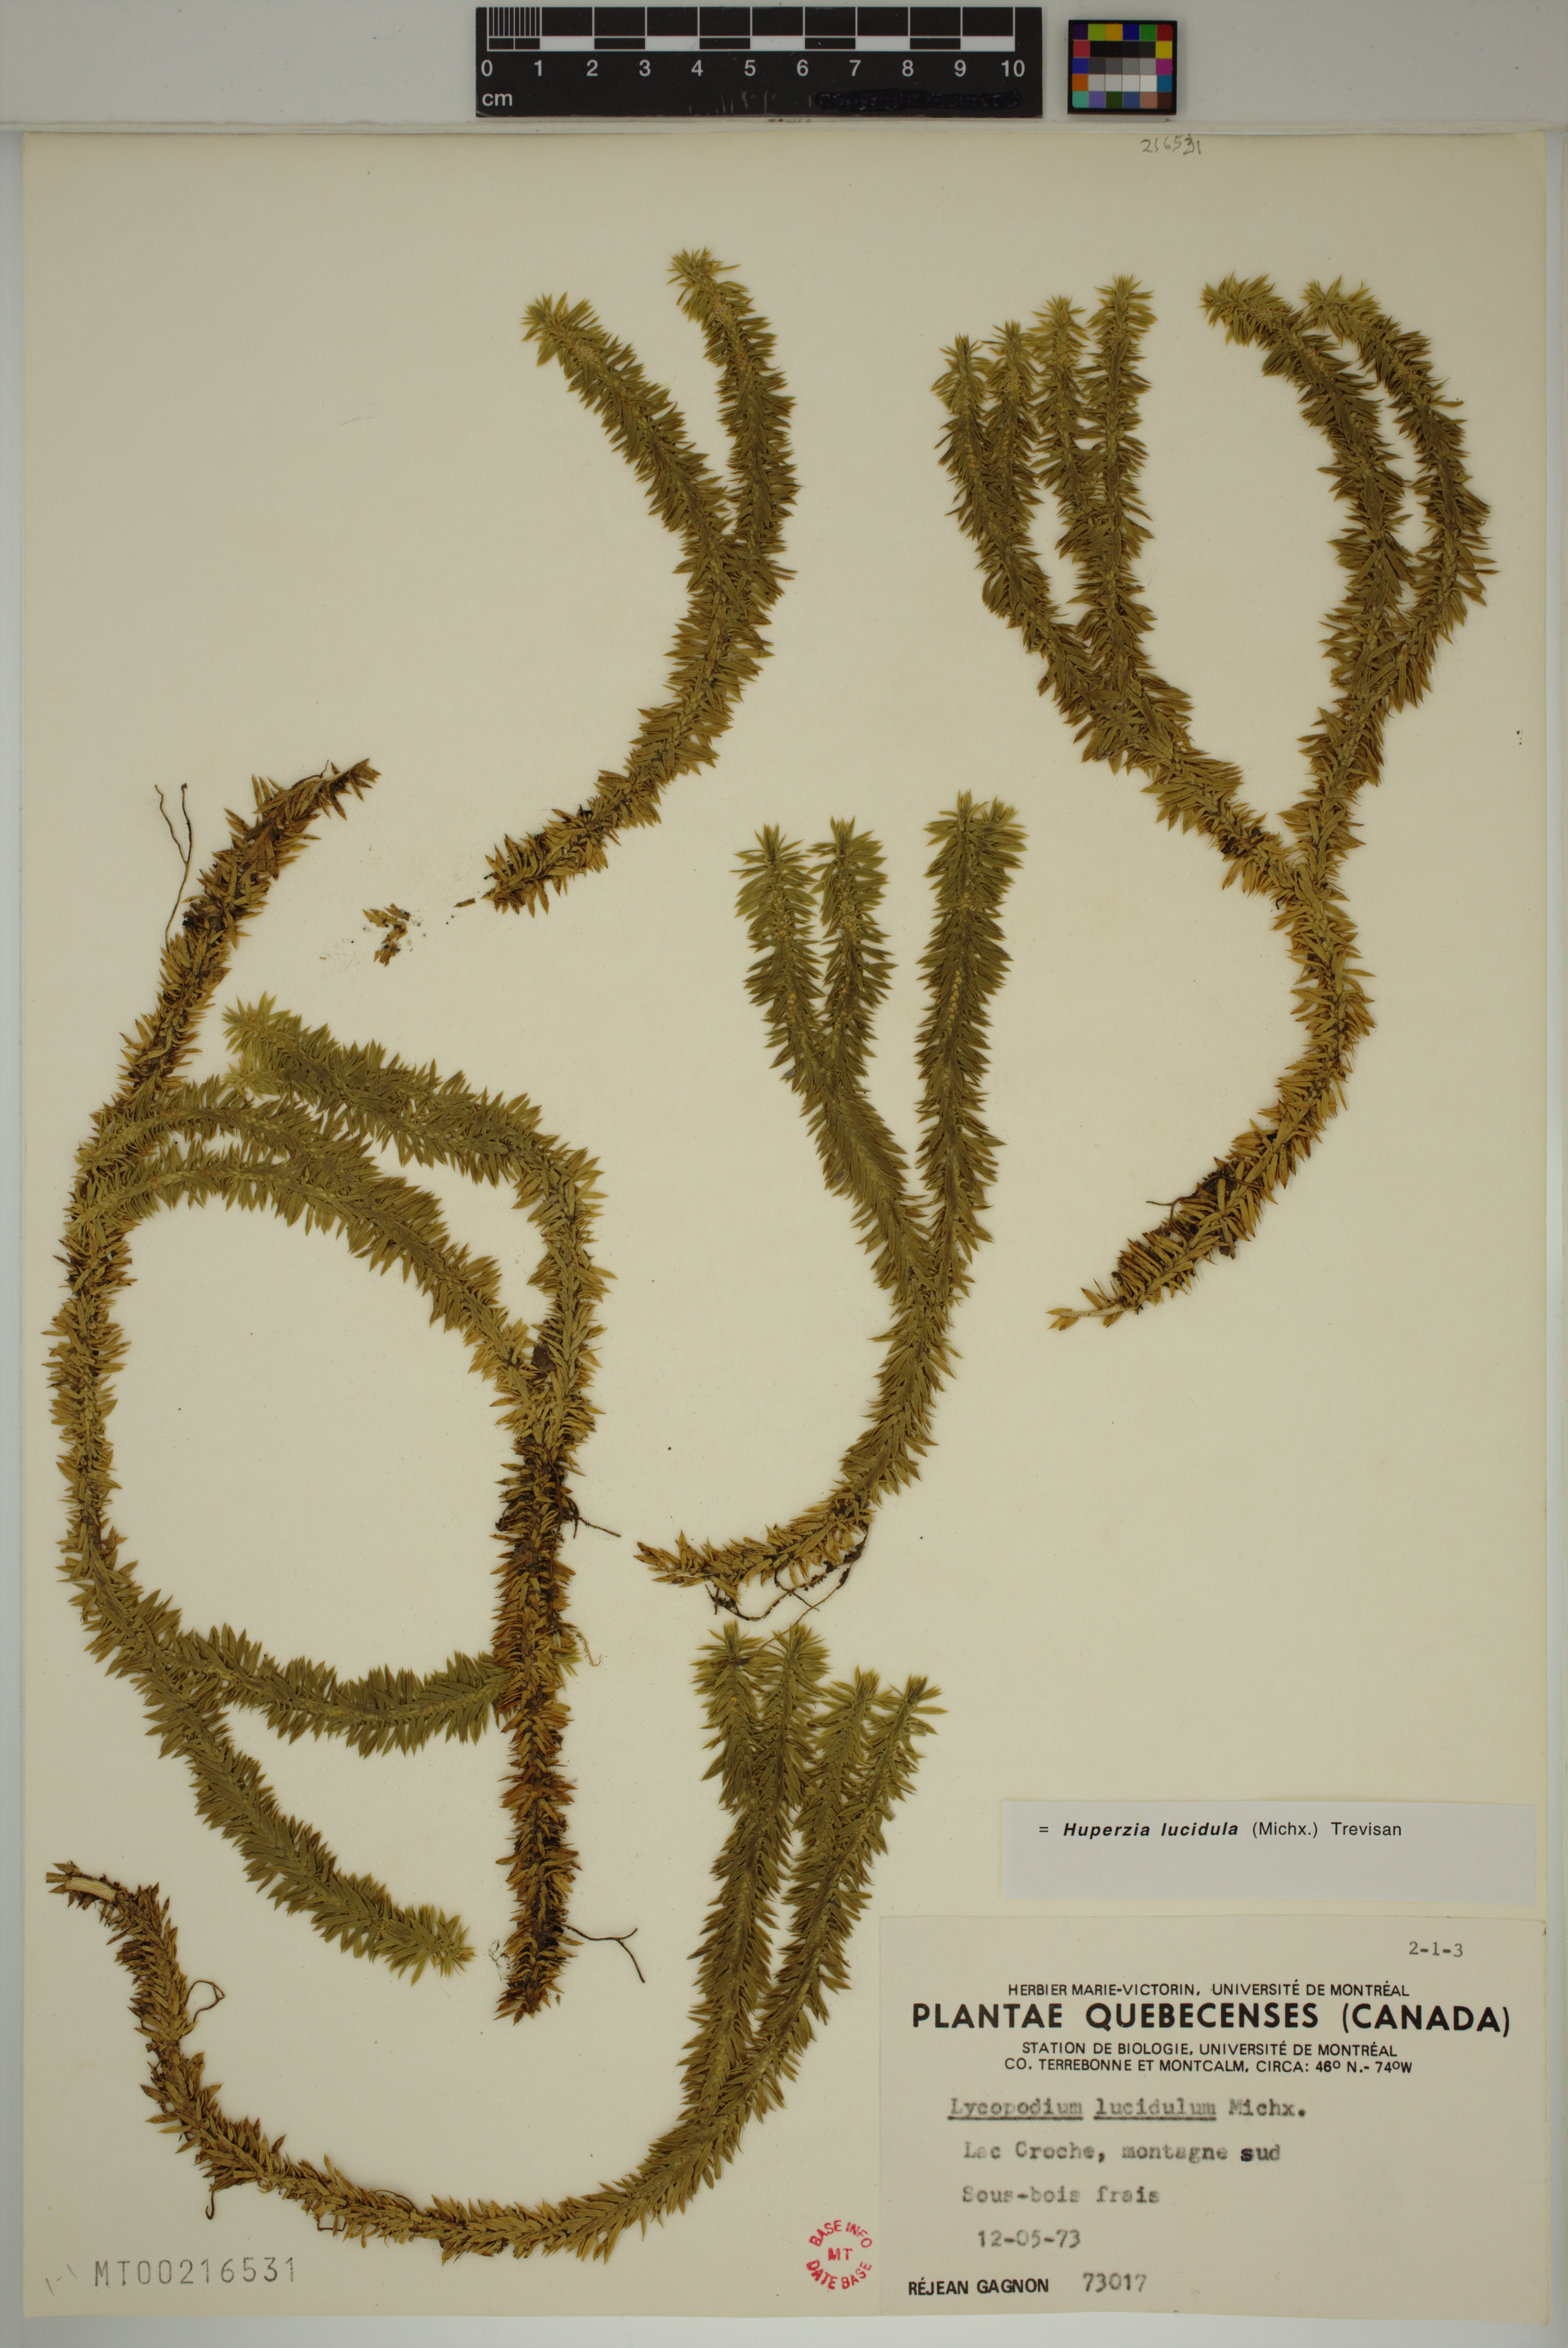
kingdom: Plantae
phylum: Tracheophyta
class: Lycopodiopsida
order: Lycopodiales
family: Lycopodiaceae
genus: Huperzia
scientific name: Huperzia lucidula
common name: Shining clubmoss
